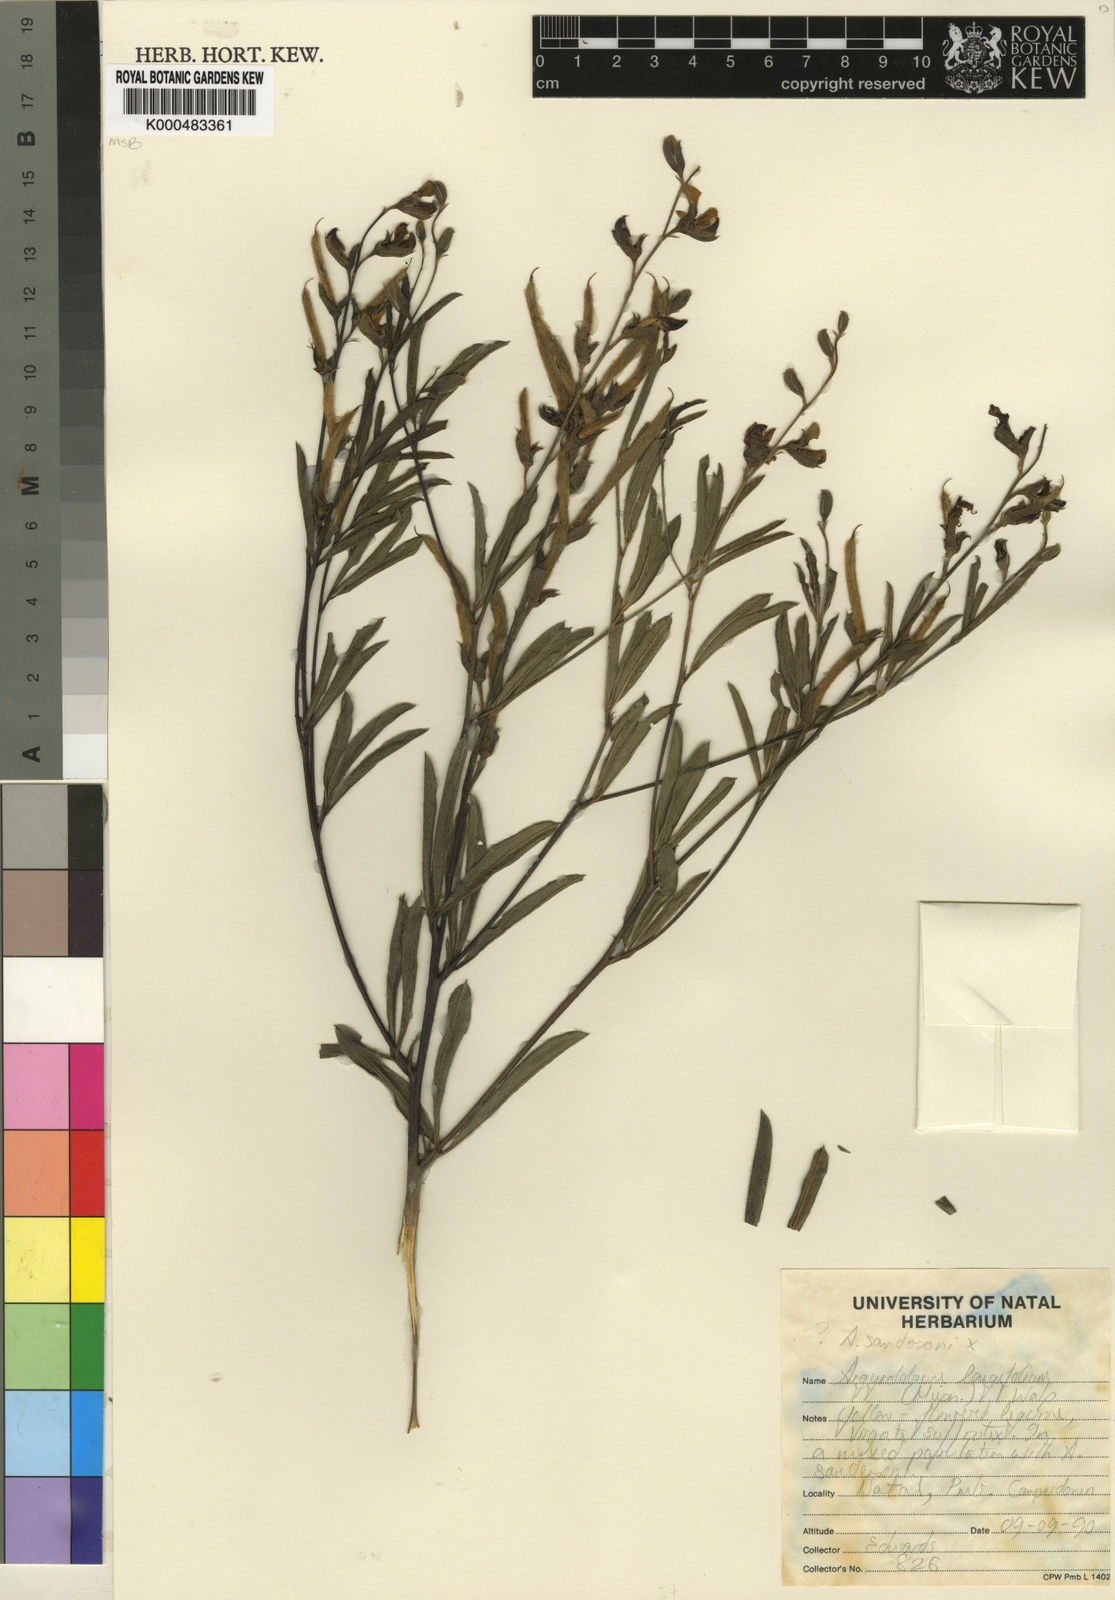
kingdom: Plantae
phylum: Tracheophyta
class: Magnoliopsida
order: Fabales
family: Fabaceae
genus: Argyrolobium
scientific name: Argyrolobium longifolium
